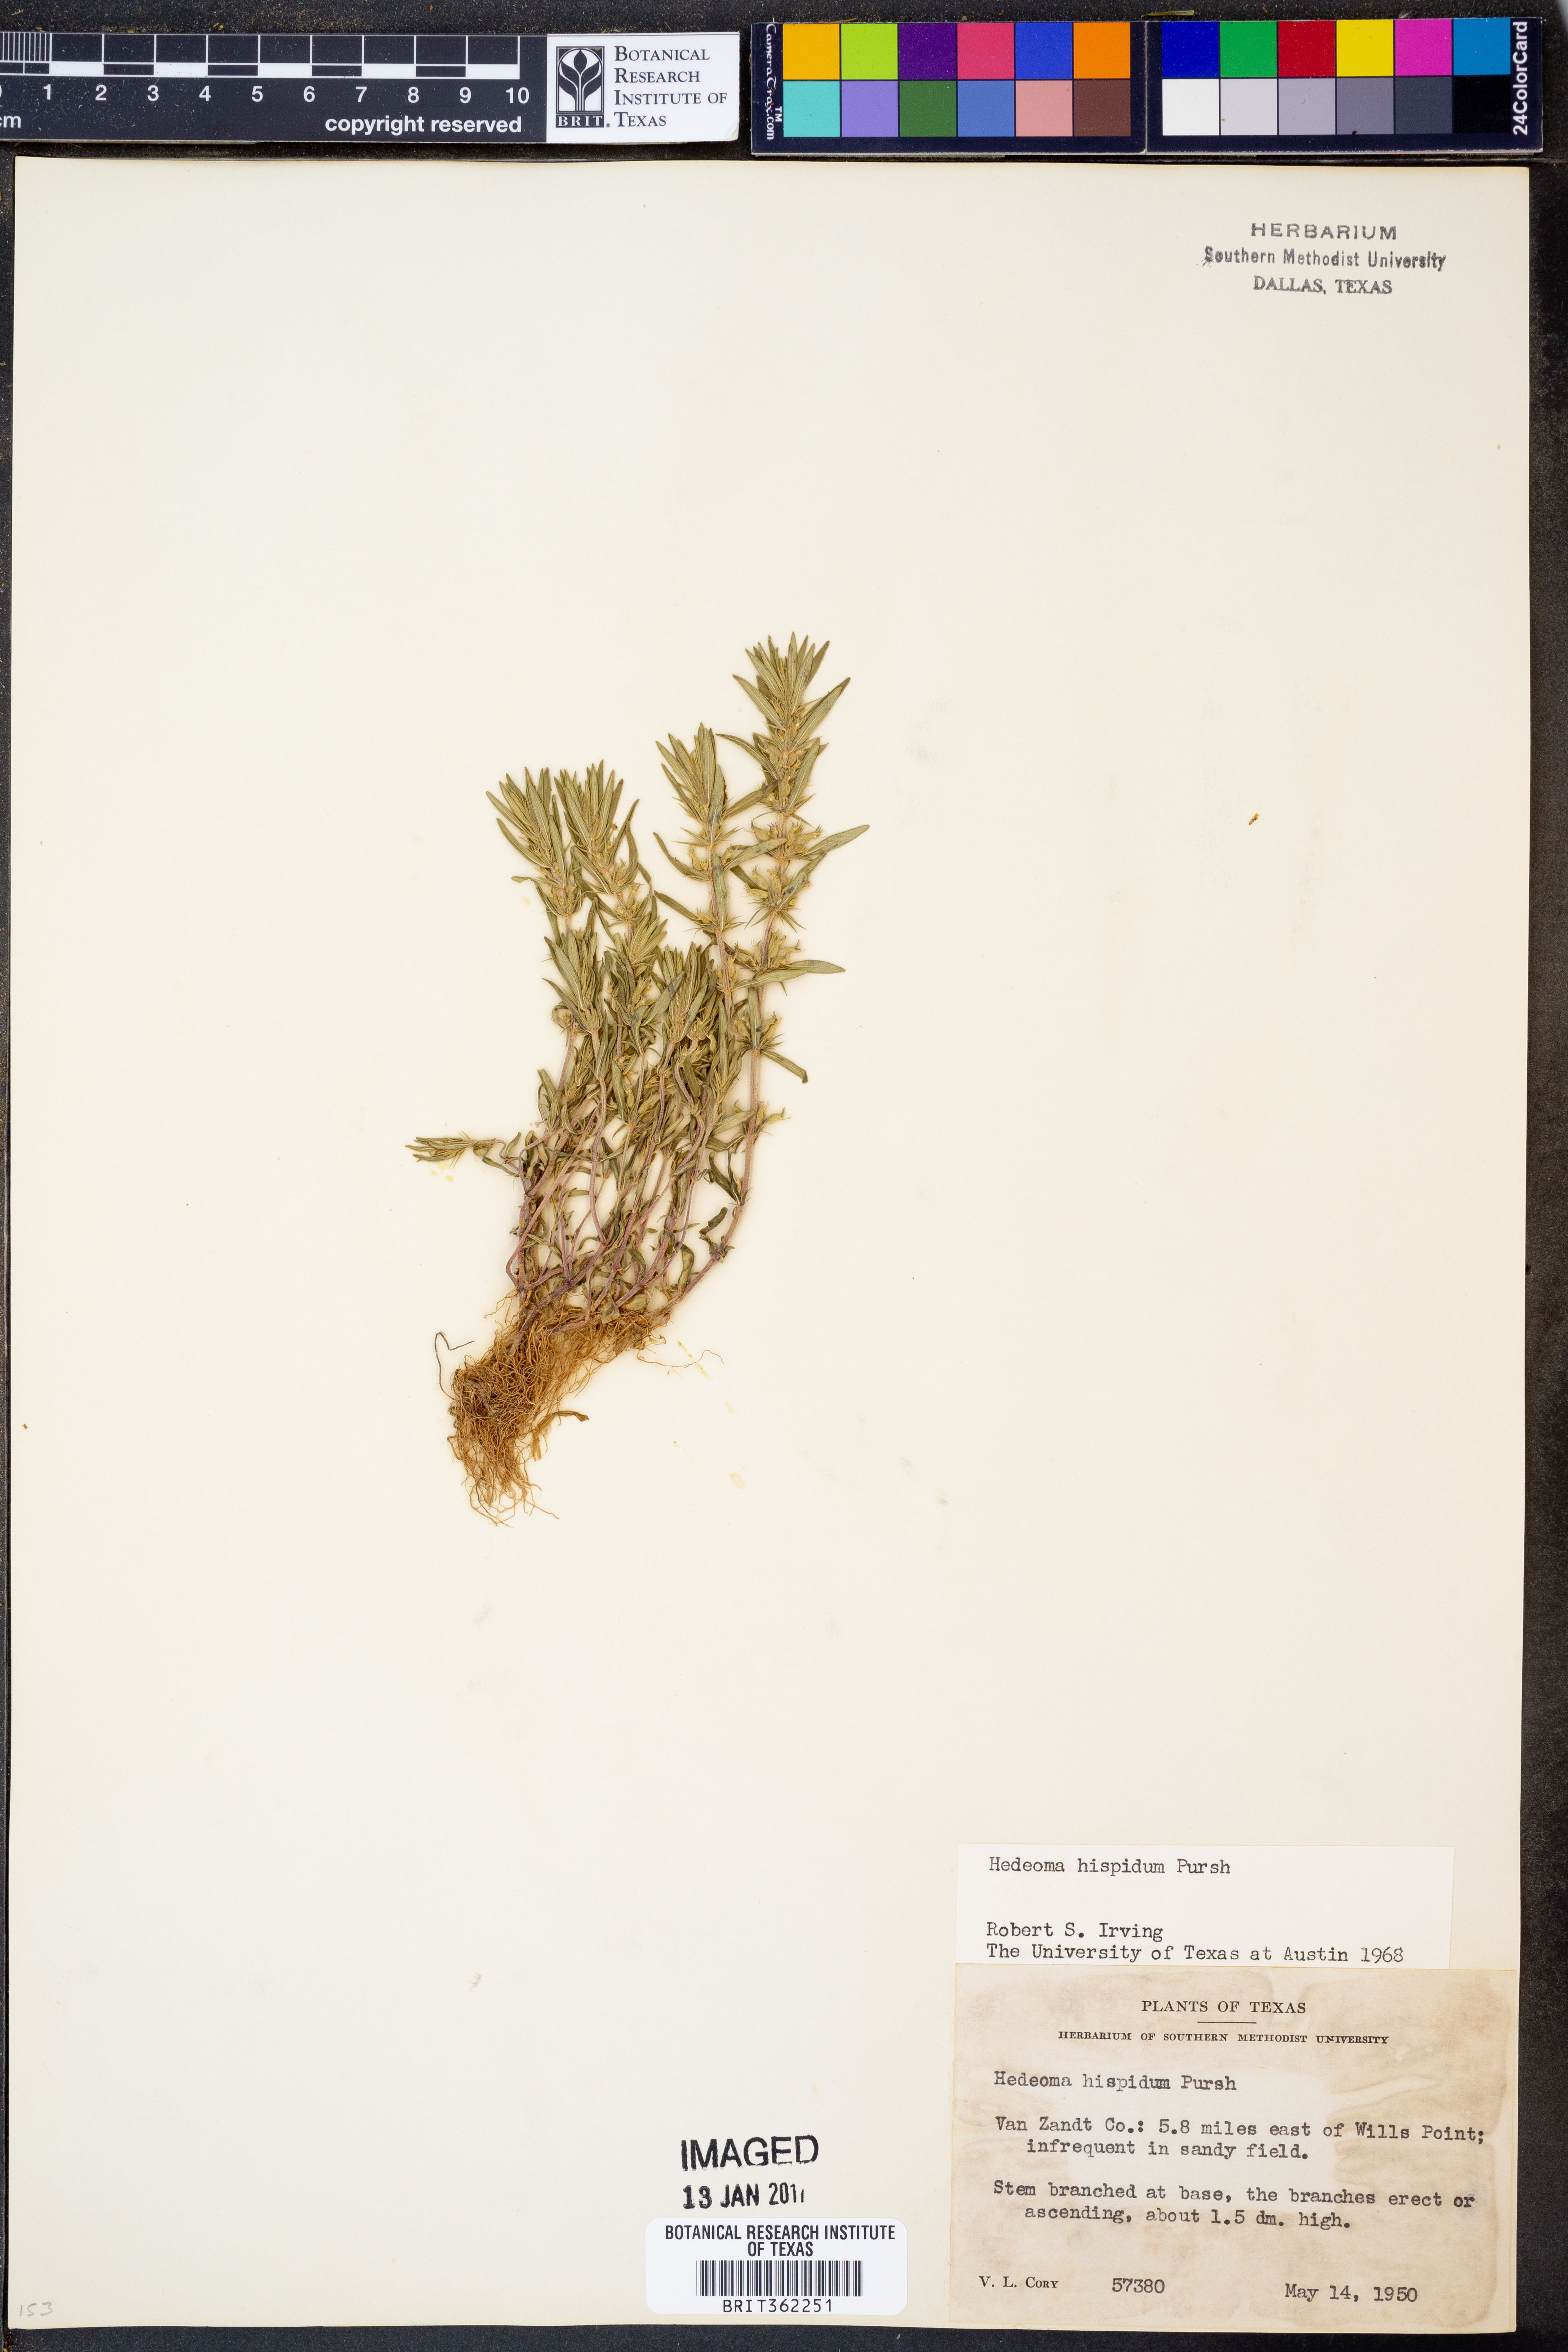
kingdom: Plantae
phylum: Tracheophyta
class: Magnoliopsida
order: Lamiales
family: Lamiaceae
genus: Hedeoma
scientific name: Hedeoma hispida
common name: Mock pennyroyal
